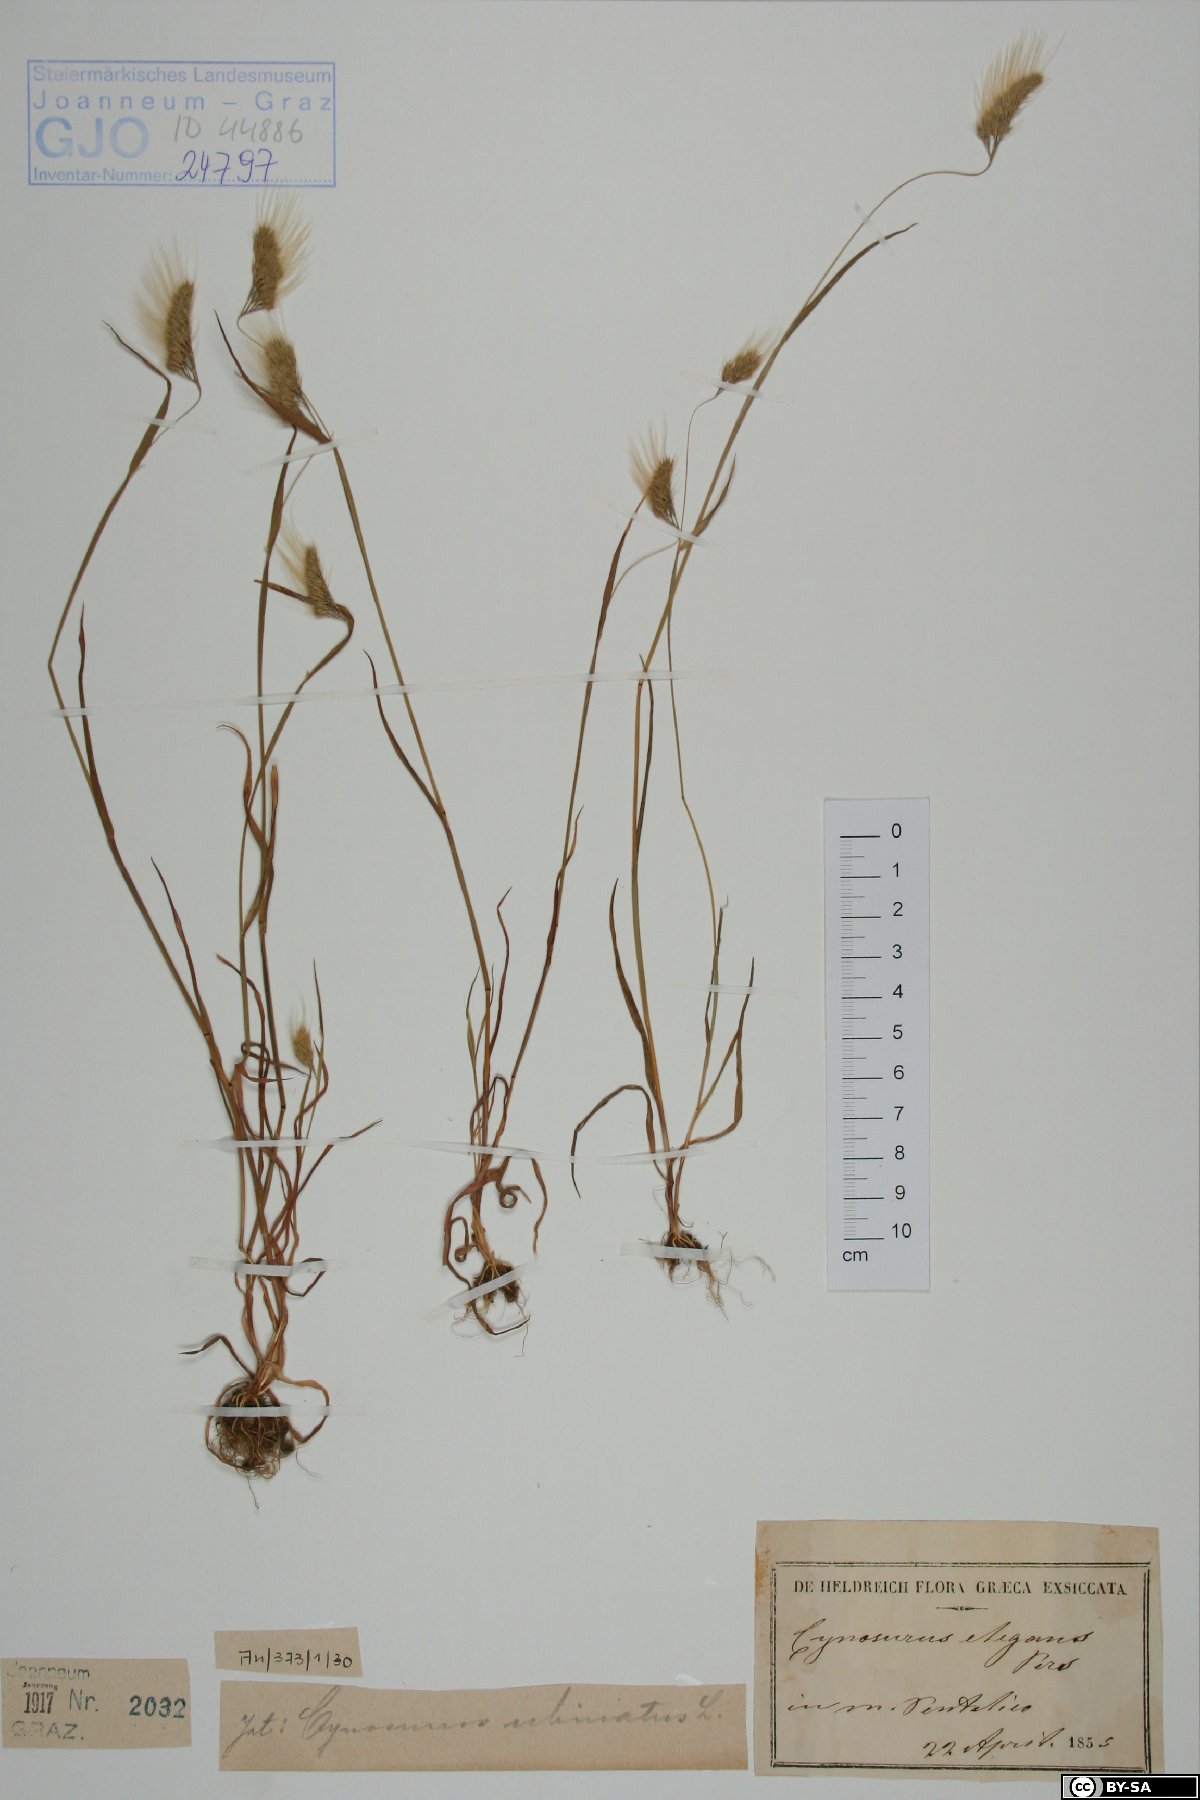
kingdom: Plantae
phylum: Tracheophyta
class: Liliopsida
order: Poales
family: Poaceae
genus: Cynosurus
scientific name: Cynosurus elegans
